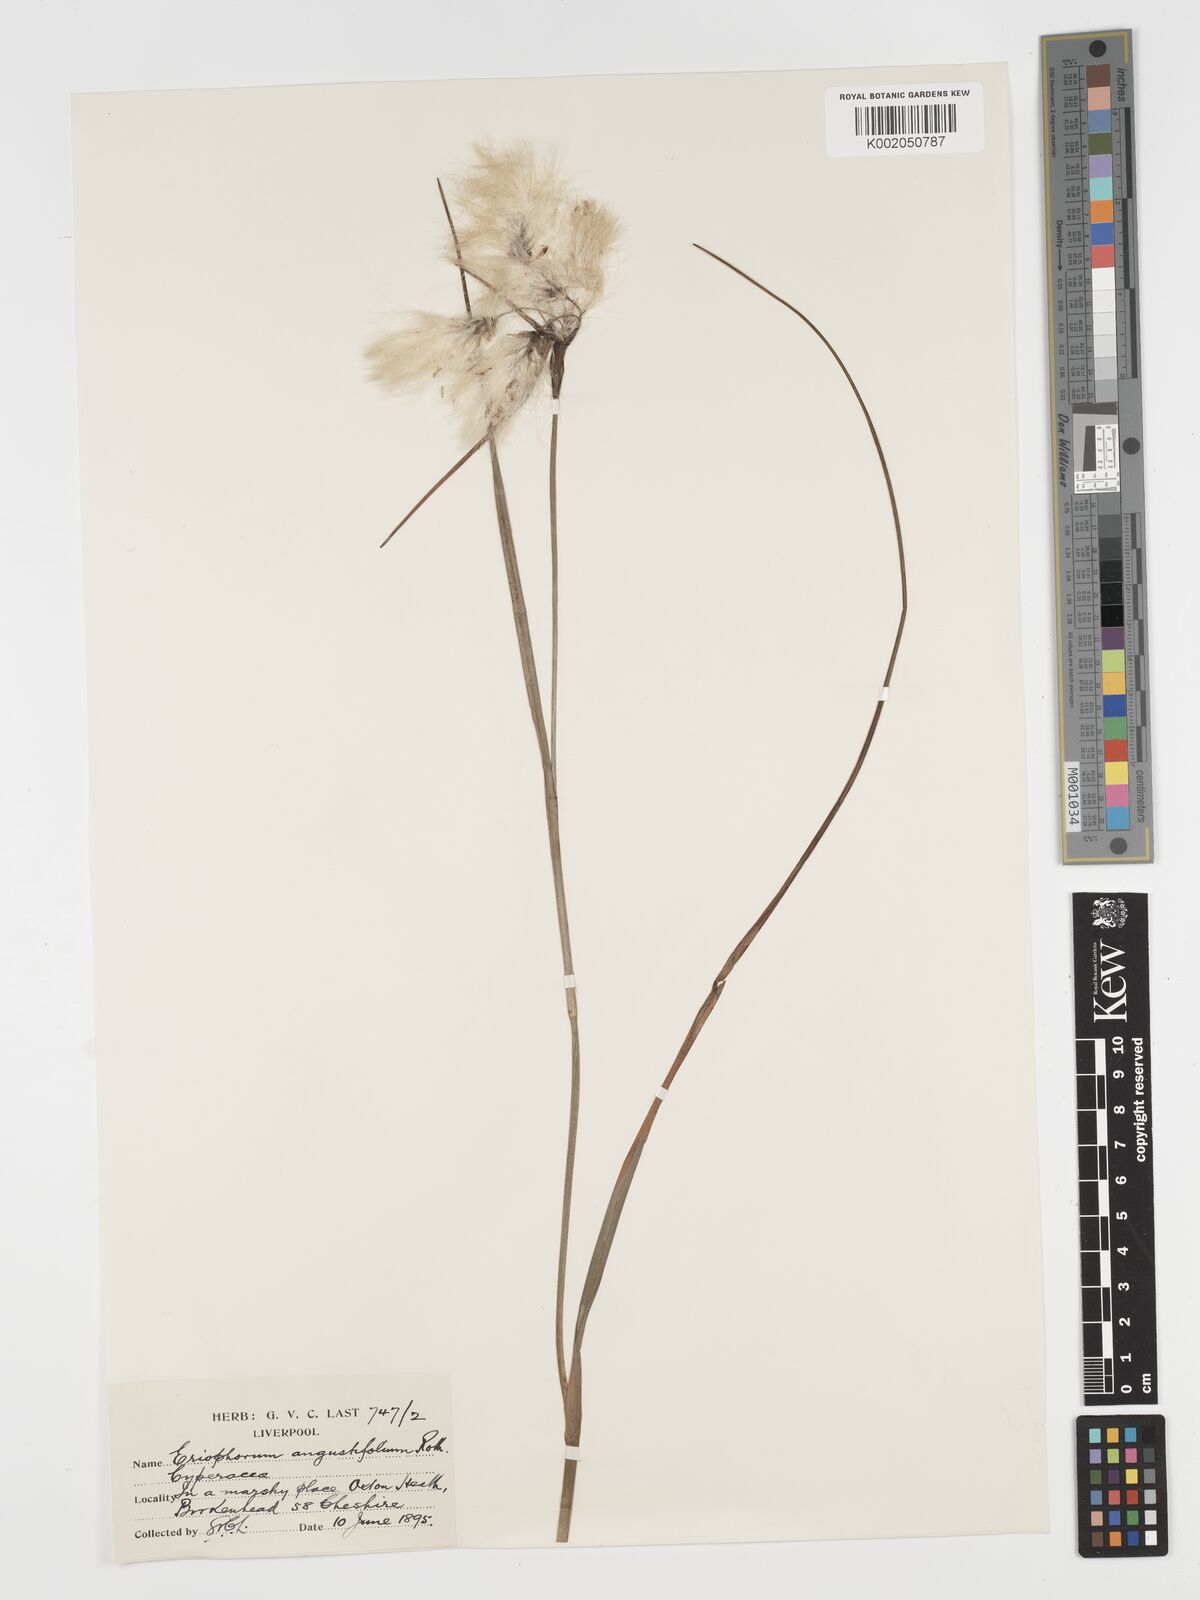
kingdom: Plantae
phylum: Tracheophyta
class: Liliopsida
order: Poales
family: Cyperaceae
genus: Eriophorum
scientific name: Eriophorum angustifolium
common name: Common cottongrass
